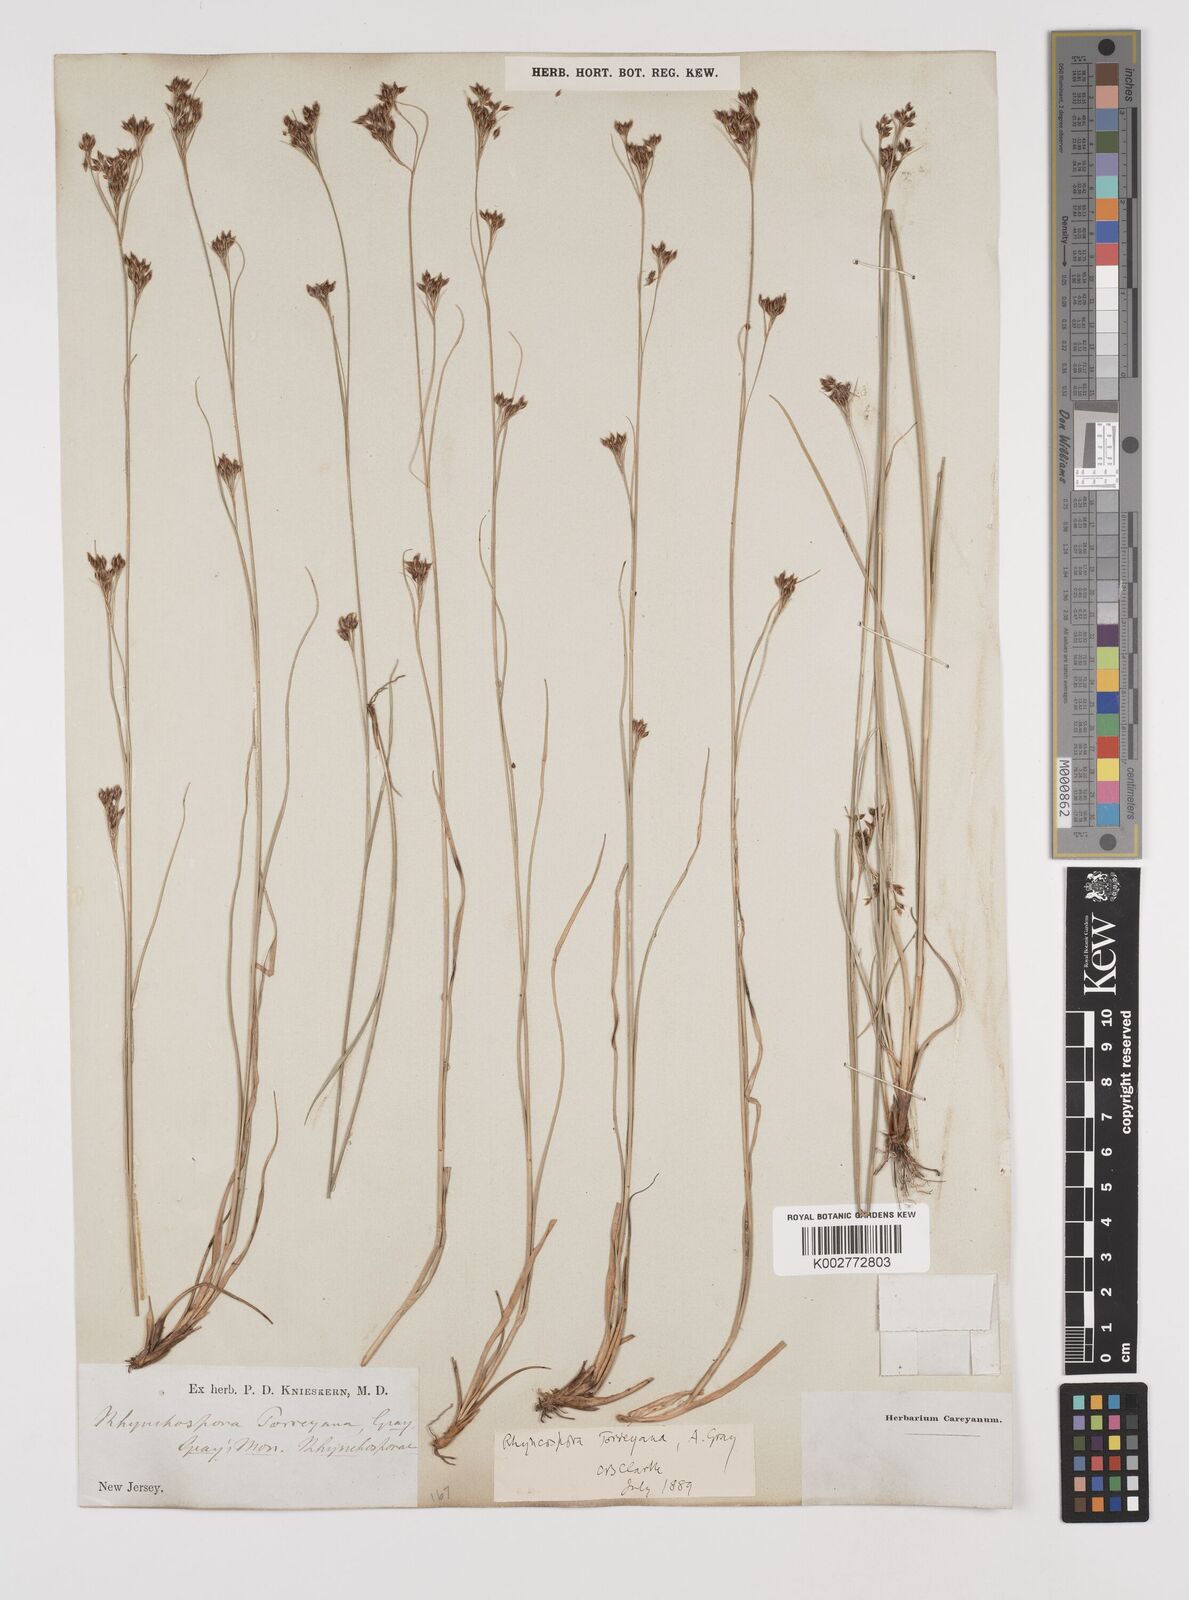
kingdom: Plantae
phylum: Tracheophyta
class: Liliopsida
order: Poales
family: Cyperaceae
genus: Rhynchospora
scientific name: Rhynchospora torreyana
